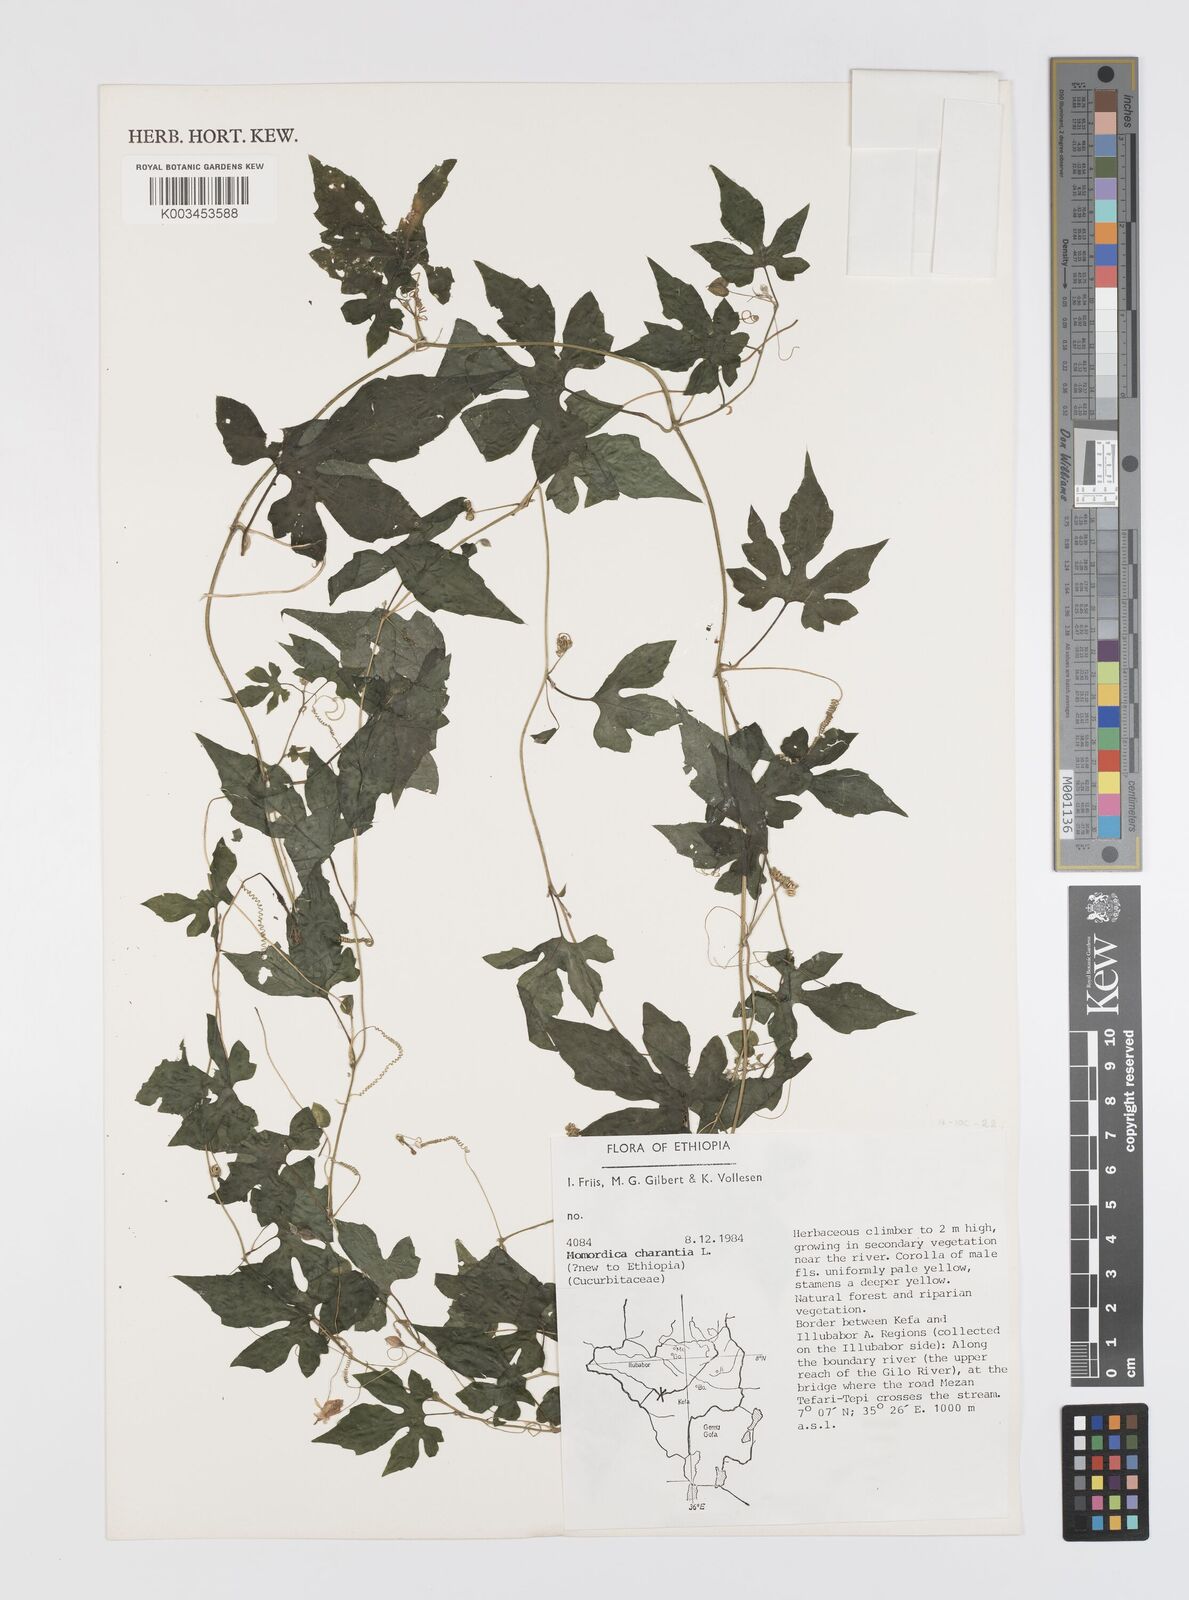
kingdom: Plantae
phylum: Tracheophyta
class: Magnoliopsida
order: Cucurbitales
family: Cucurbitaceae
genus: Momordica
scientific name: Momordica charantia
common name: Balsampear
